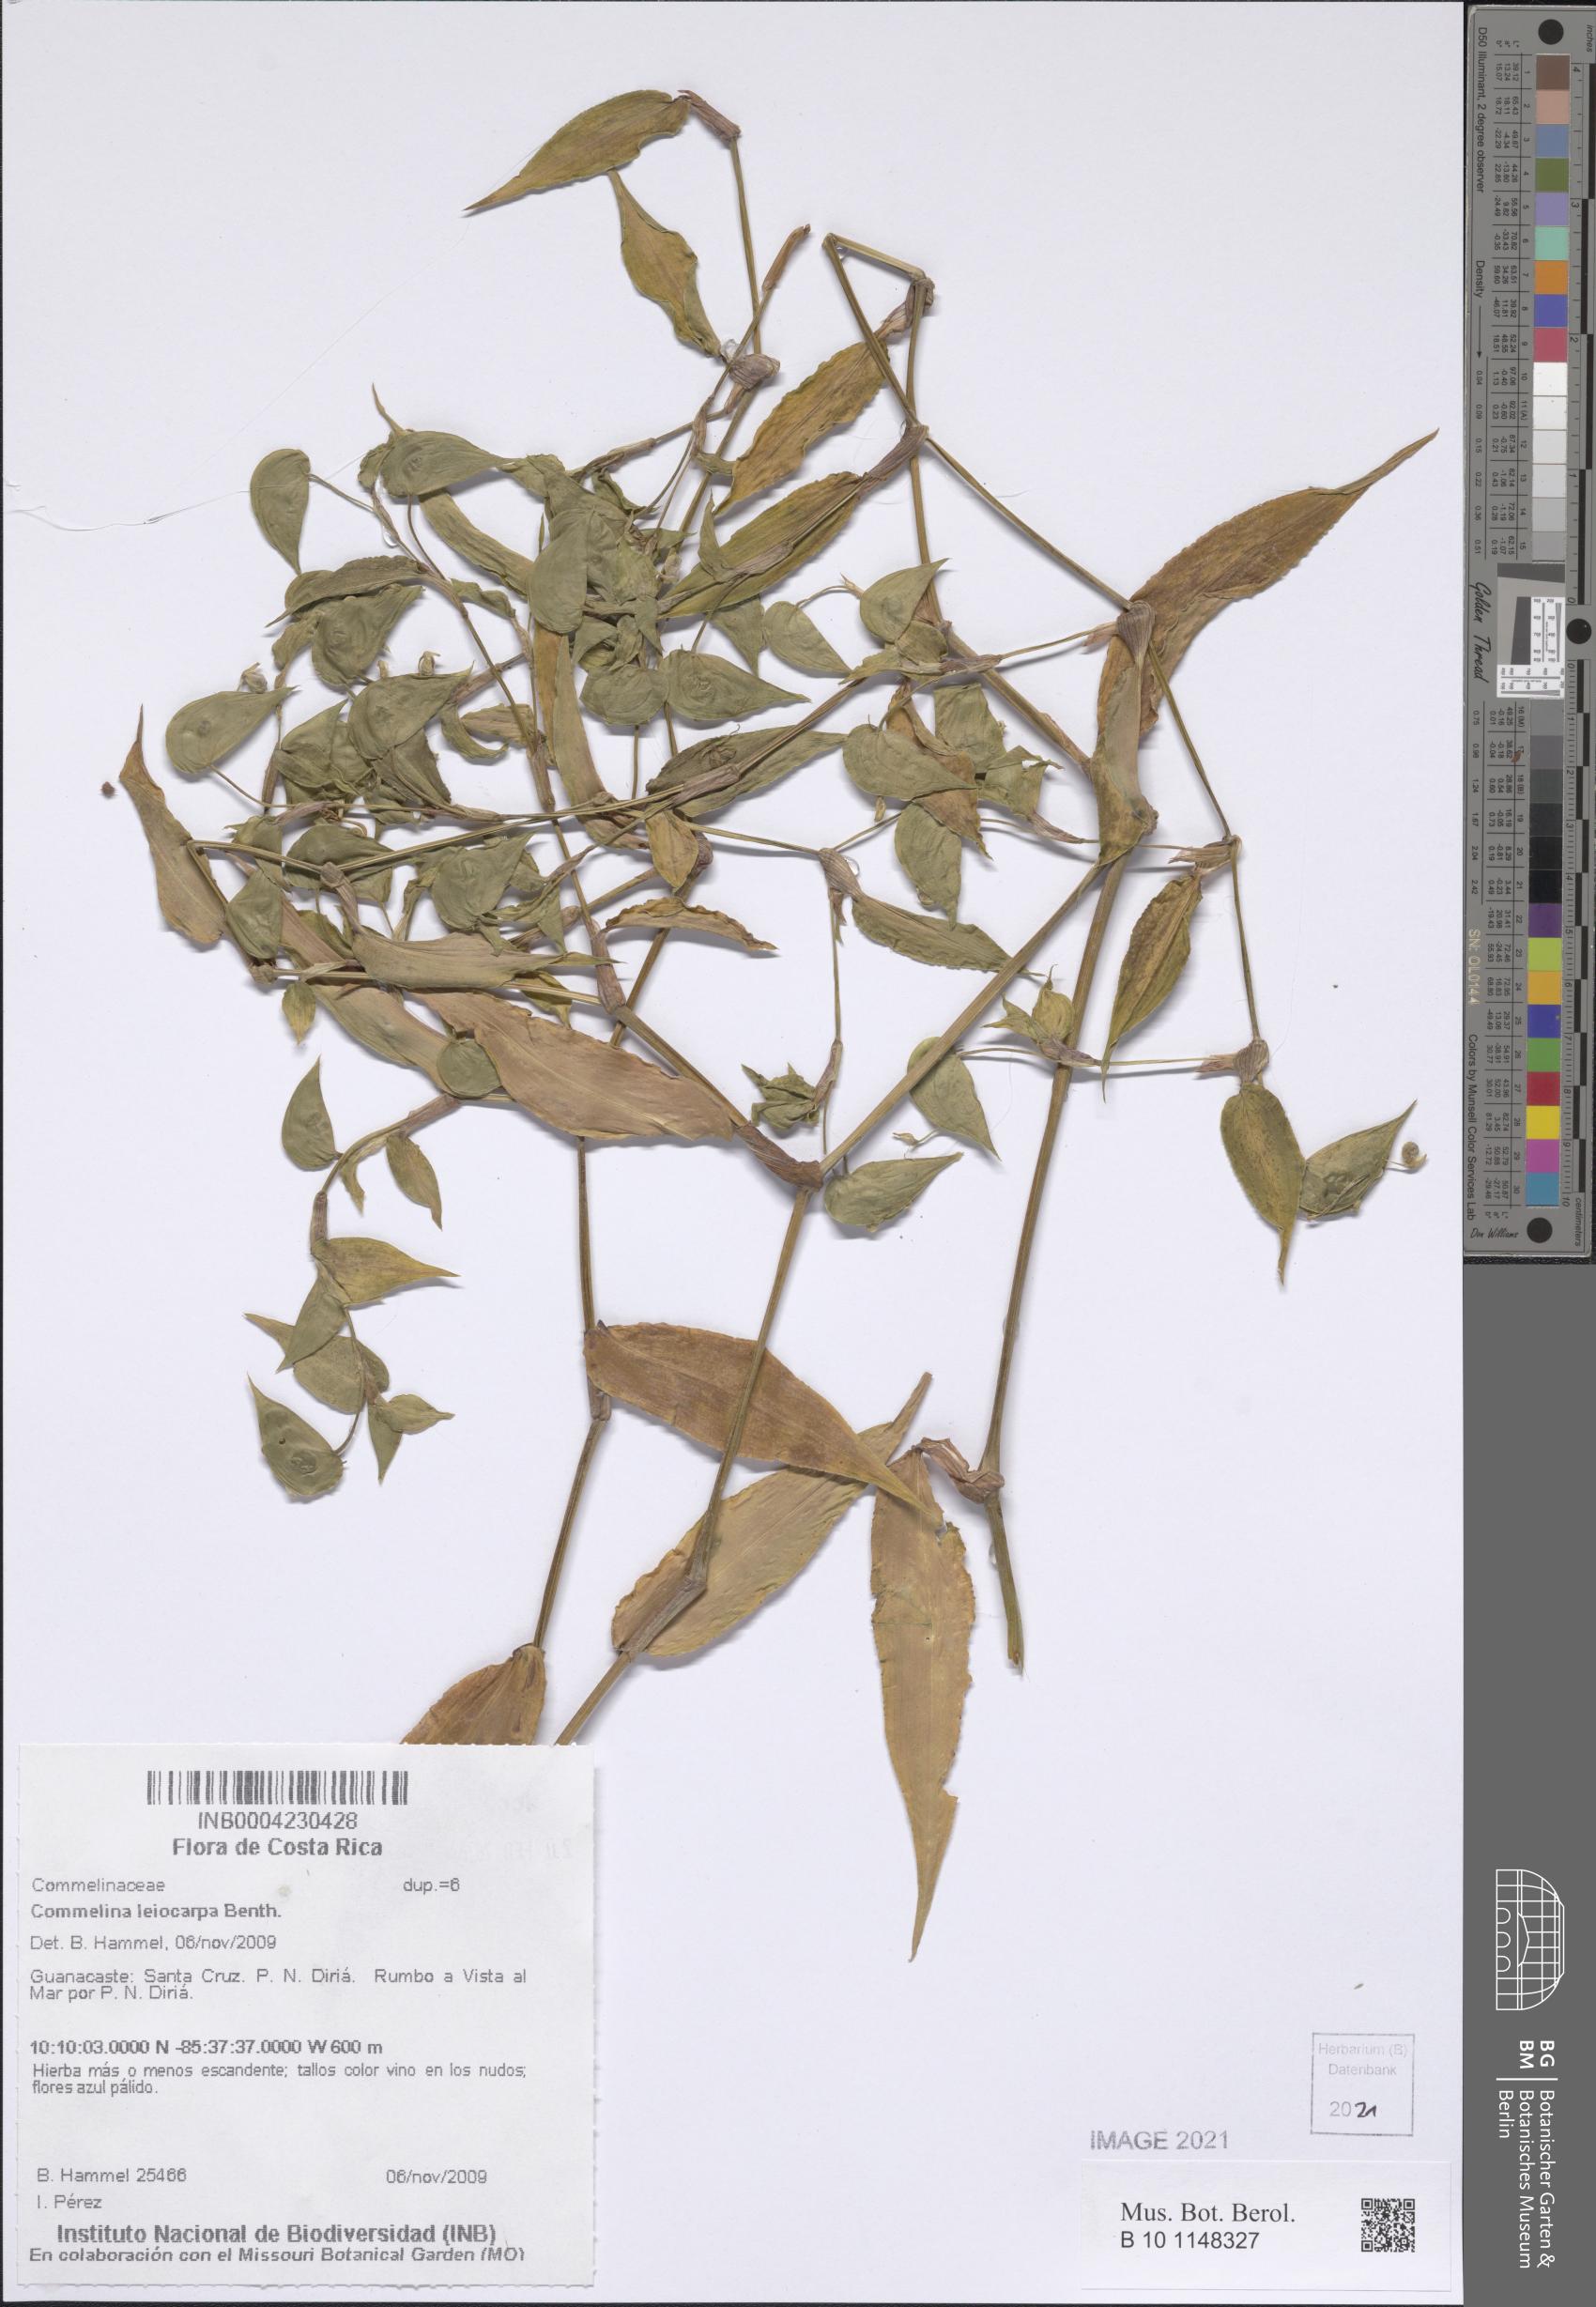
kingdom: Plantae
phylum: Tracheophyta
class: Liliopsida
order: Commelinales
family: Commelinaceae
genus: Commelina
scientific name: Commelina leiocarpa
